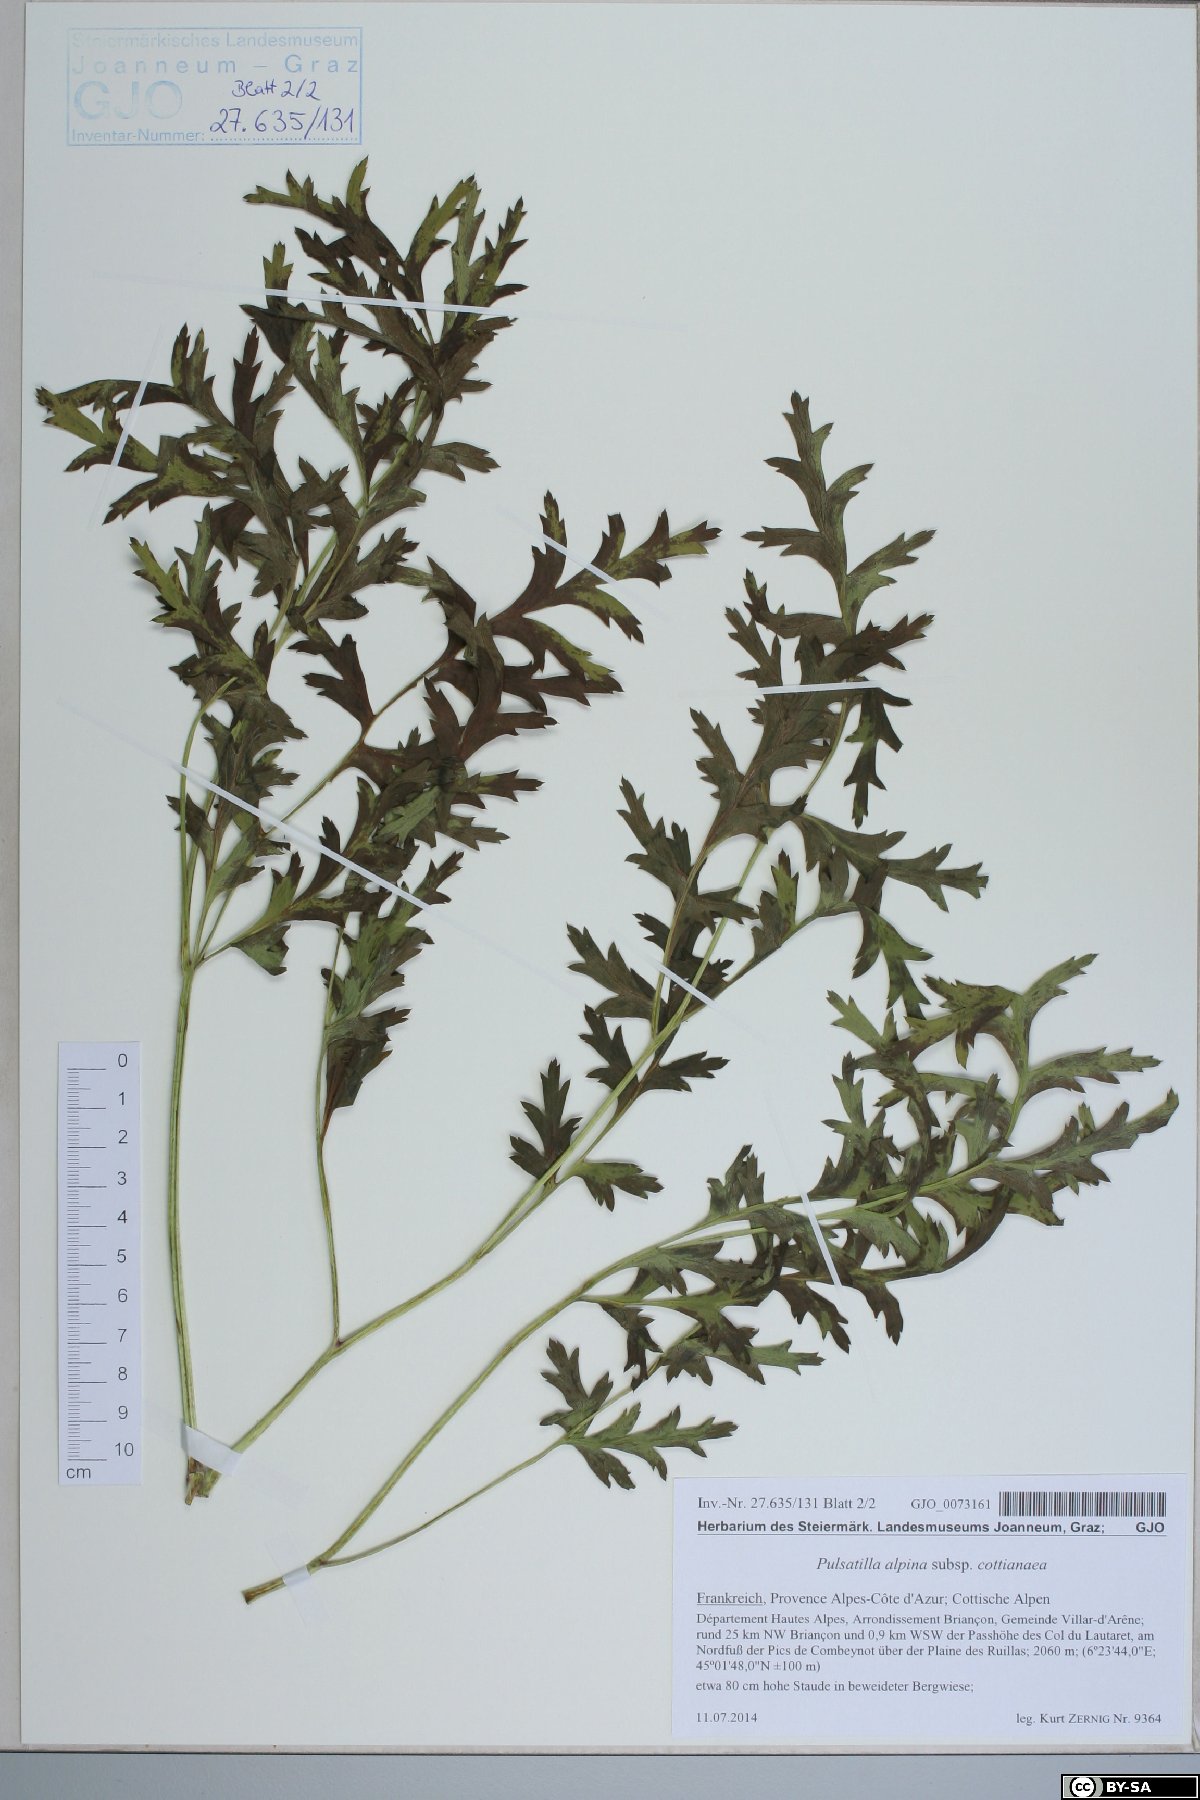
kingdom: Plantae
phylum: Tracheophyta
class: Magnoliopsida
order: Ranunculales
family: Ranunculaceae
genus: Pulsatilla
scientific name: Pulsatilla alpina
